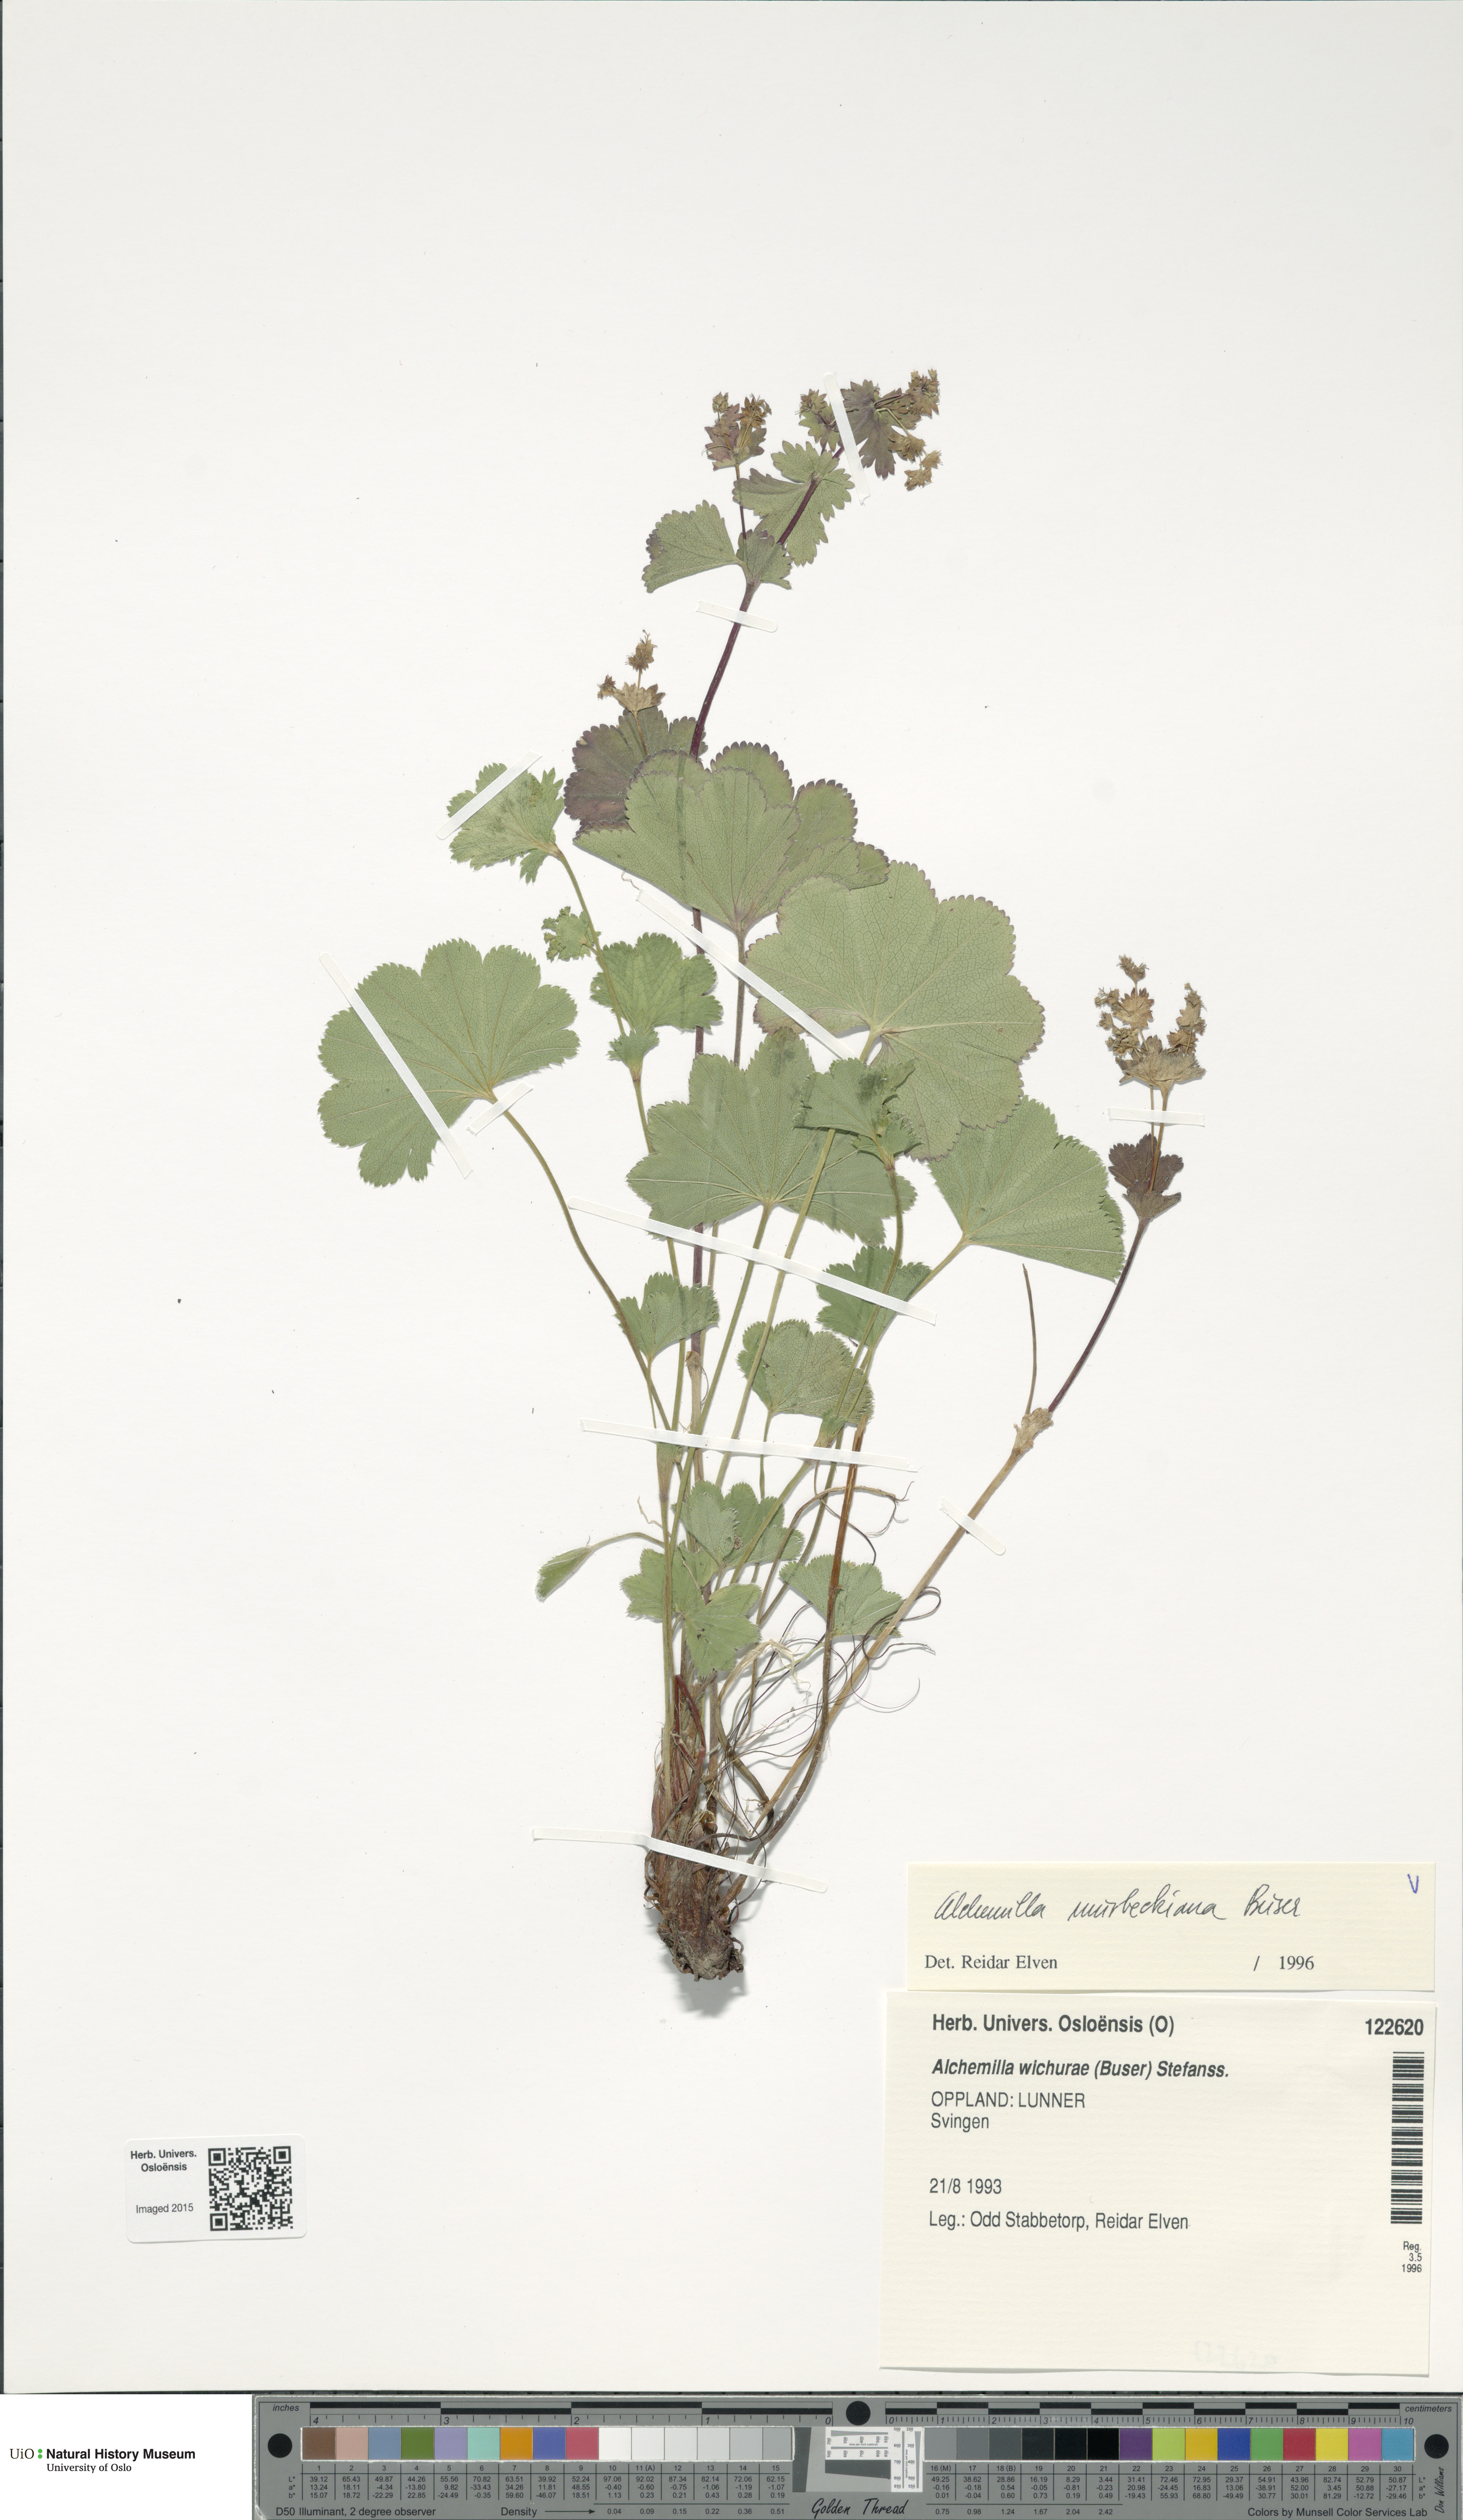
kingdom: Plantae
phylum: Tracheophyta
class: Magnoliopsida
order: Rosales
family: Rosaceae
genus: Alchemilla
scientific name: Alchemilla murbeckiana
